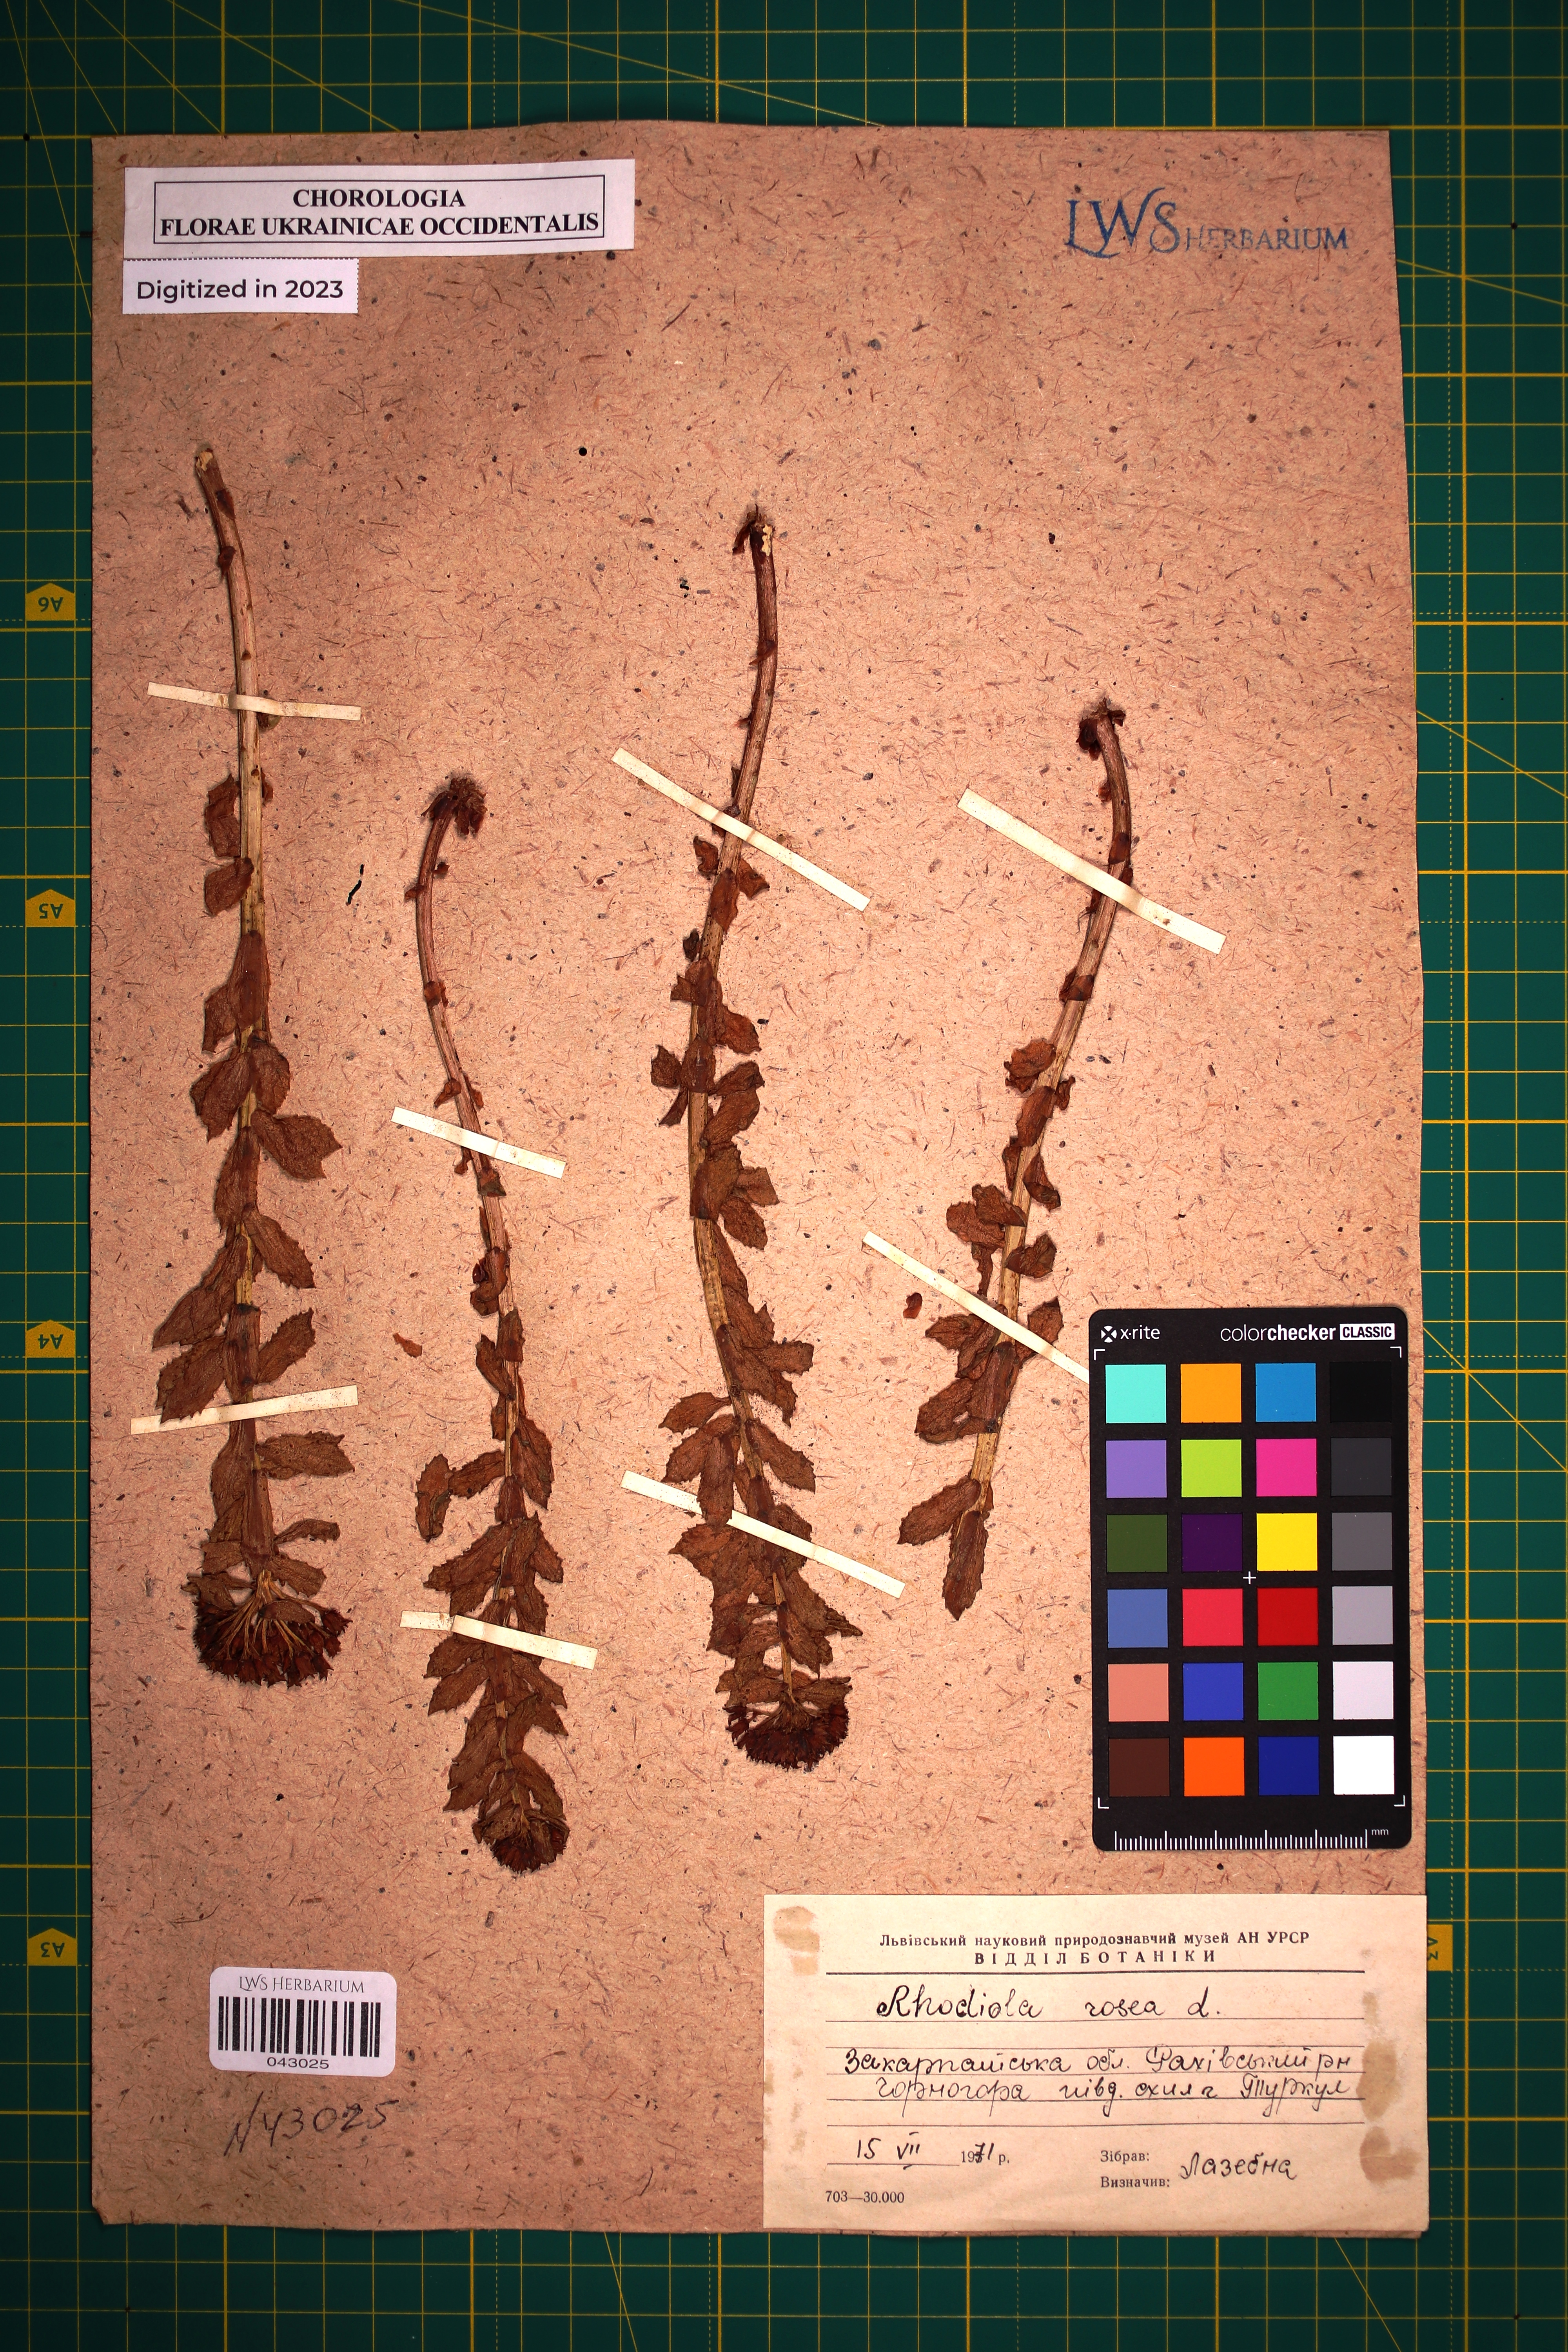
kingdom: Plantae
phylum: Tracheophyta
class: Magnoliopsida
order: Saxifragales
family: Crassulaceae
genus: Rhodiola
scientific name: Rhodiola rosea
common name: Roseroot
